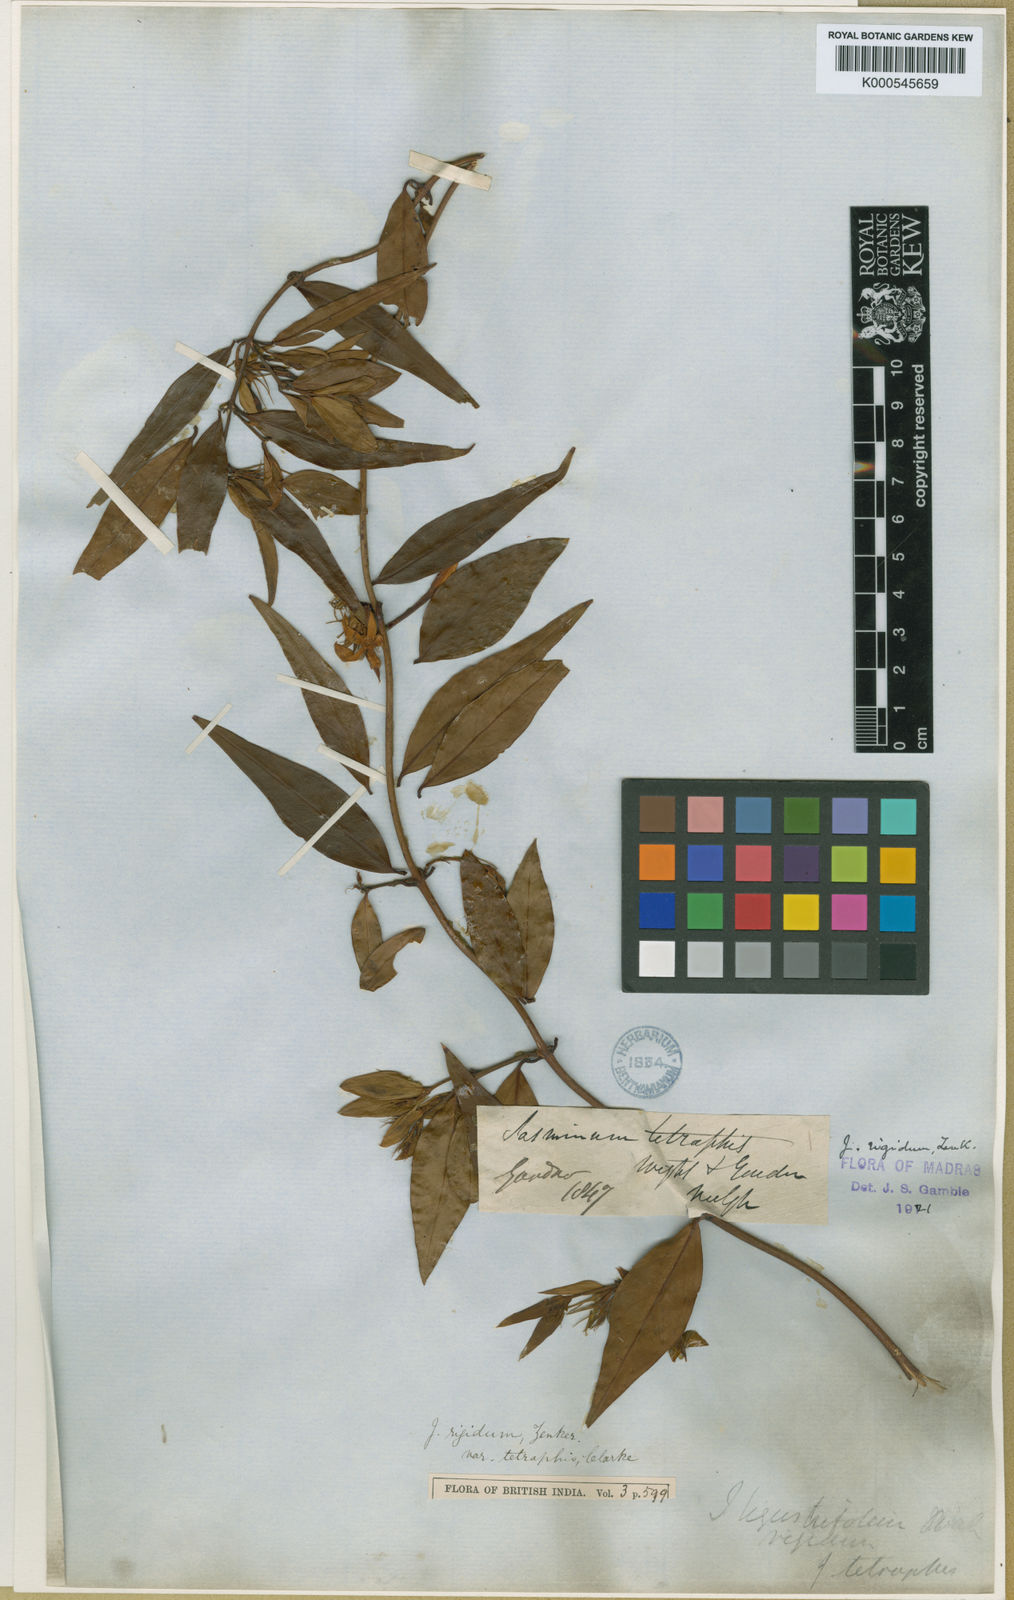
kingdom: Plantae
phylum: Tracheophyta
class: Magnoliopsida
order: Lamiales
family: Oleaceae
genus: Jasminum
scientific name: Jasminum cuspidatum
